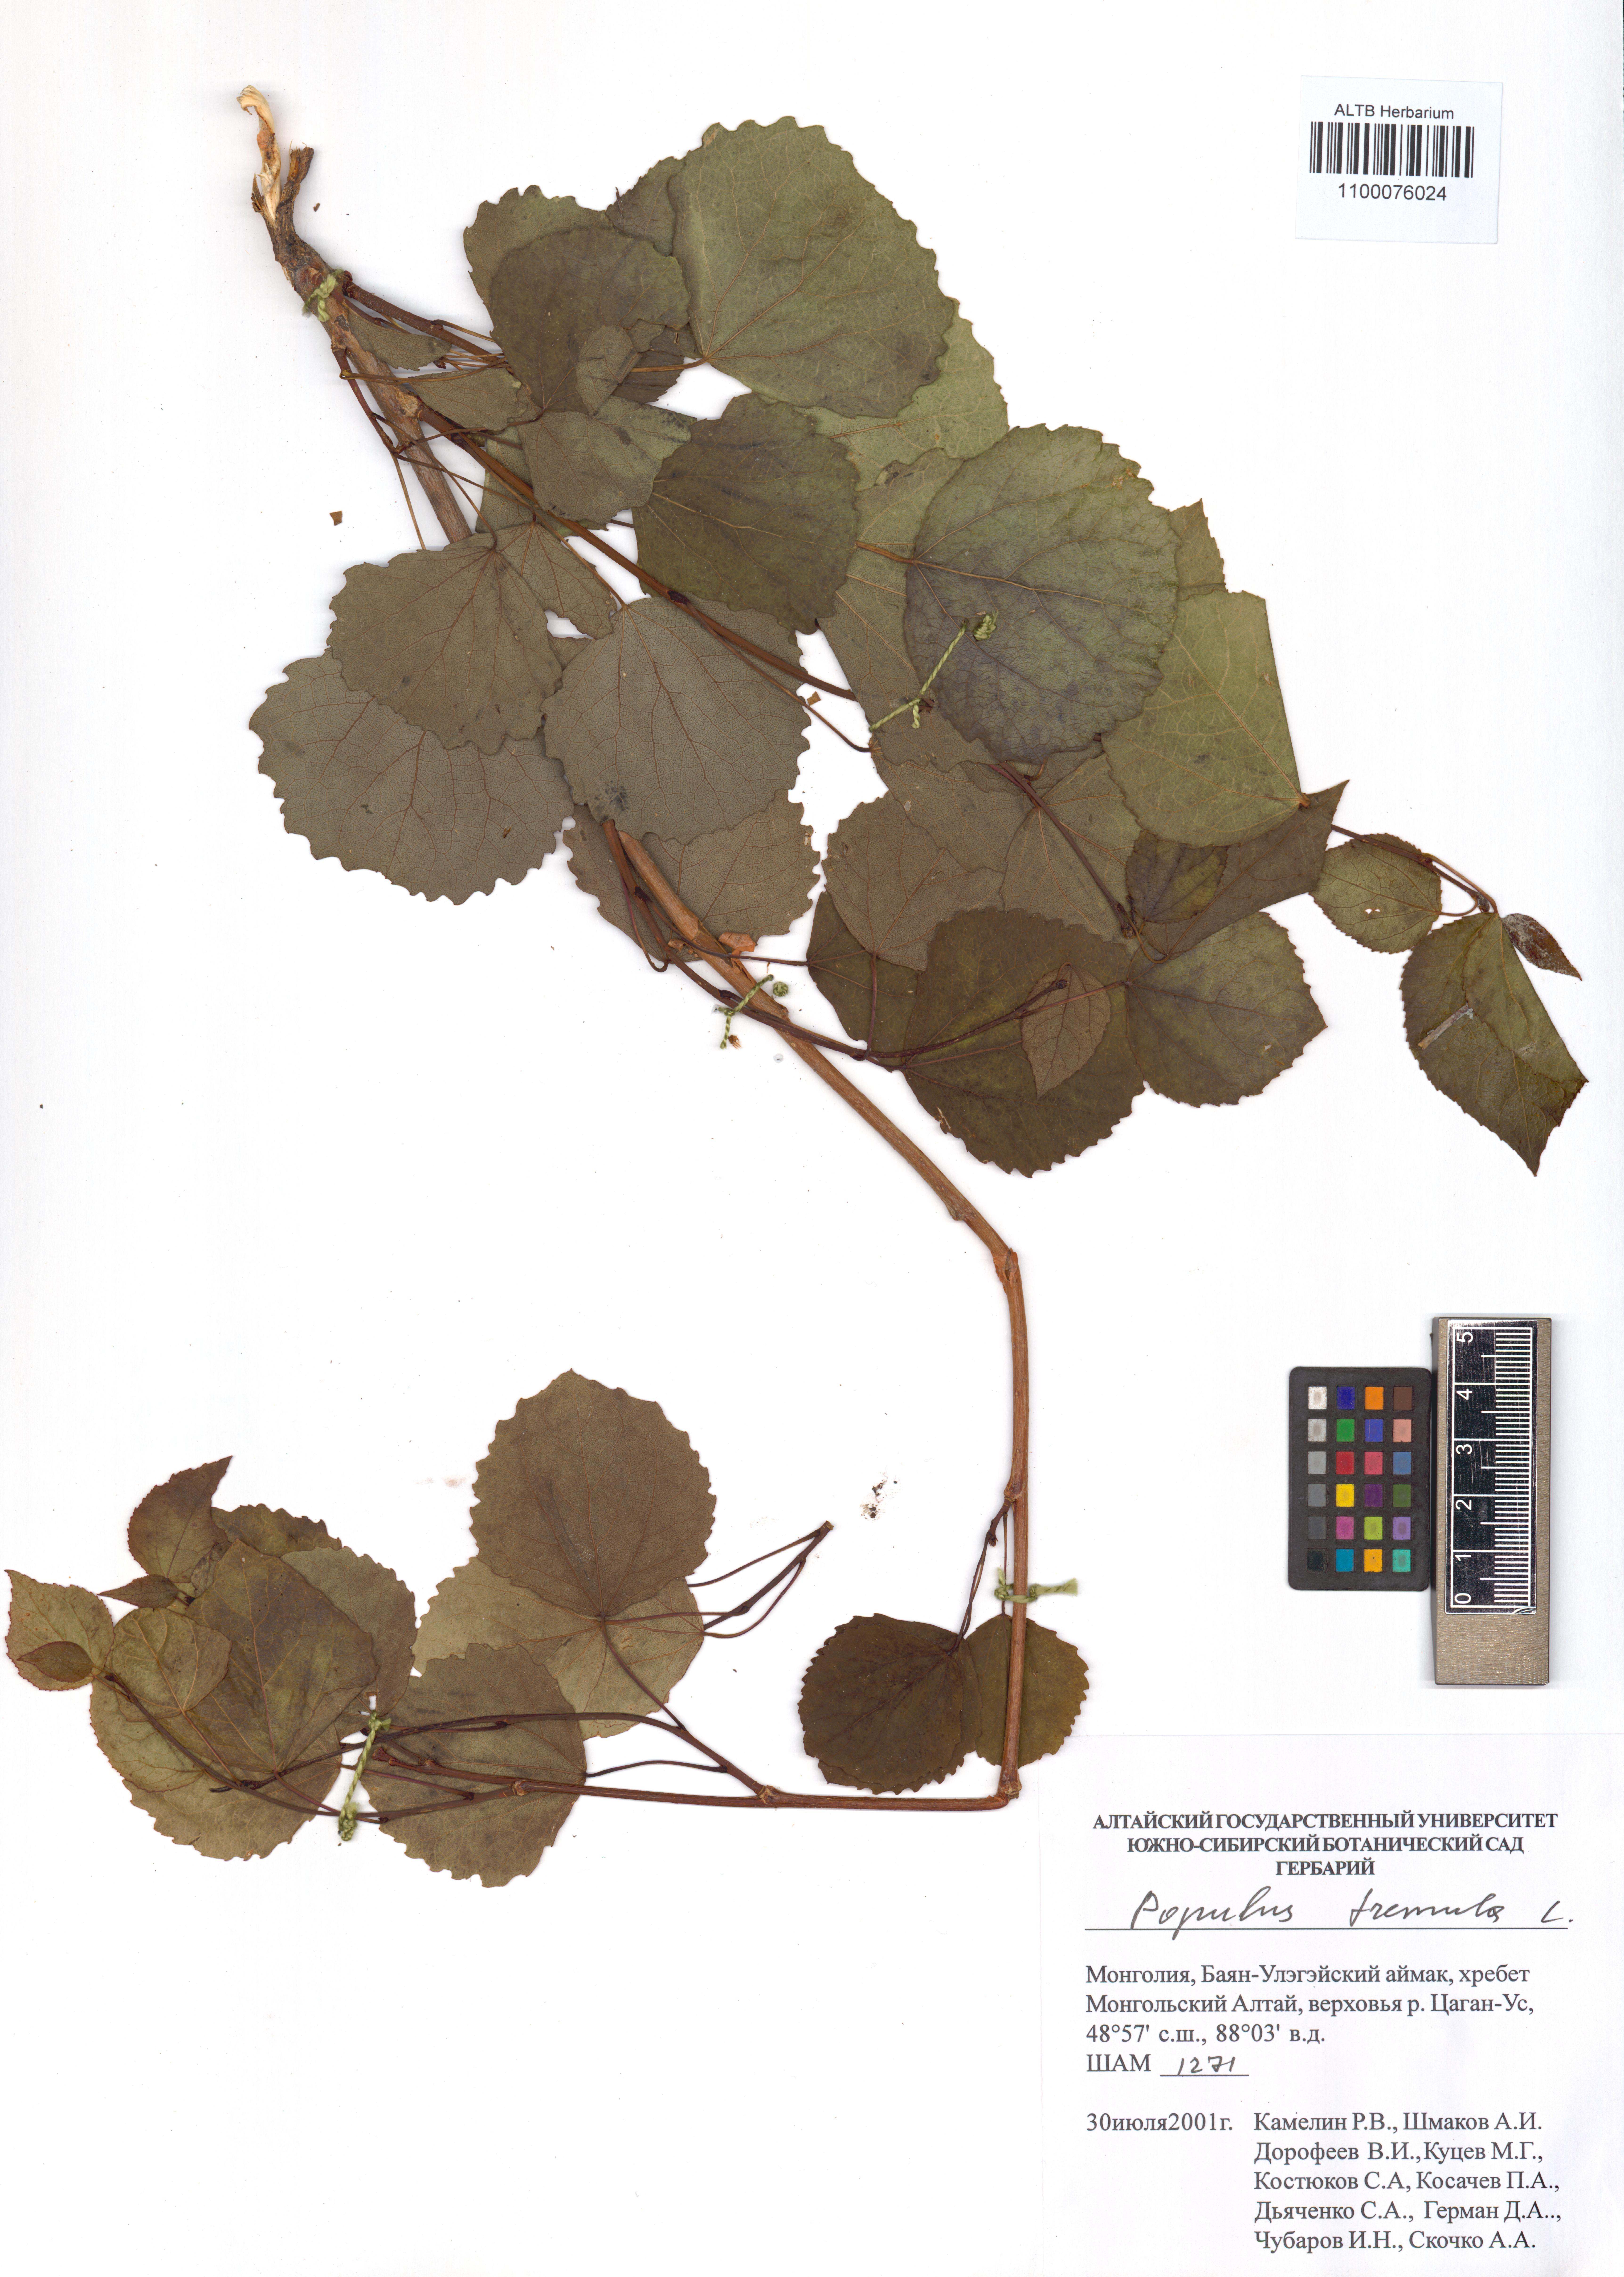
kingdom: Plantae
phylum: Tracheophyta
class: Magnoliopsida
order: Malpighiales
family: Salicaceae
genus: Populus
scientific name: Populus tremula
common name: European aspen
